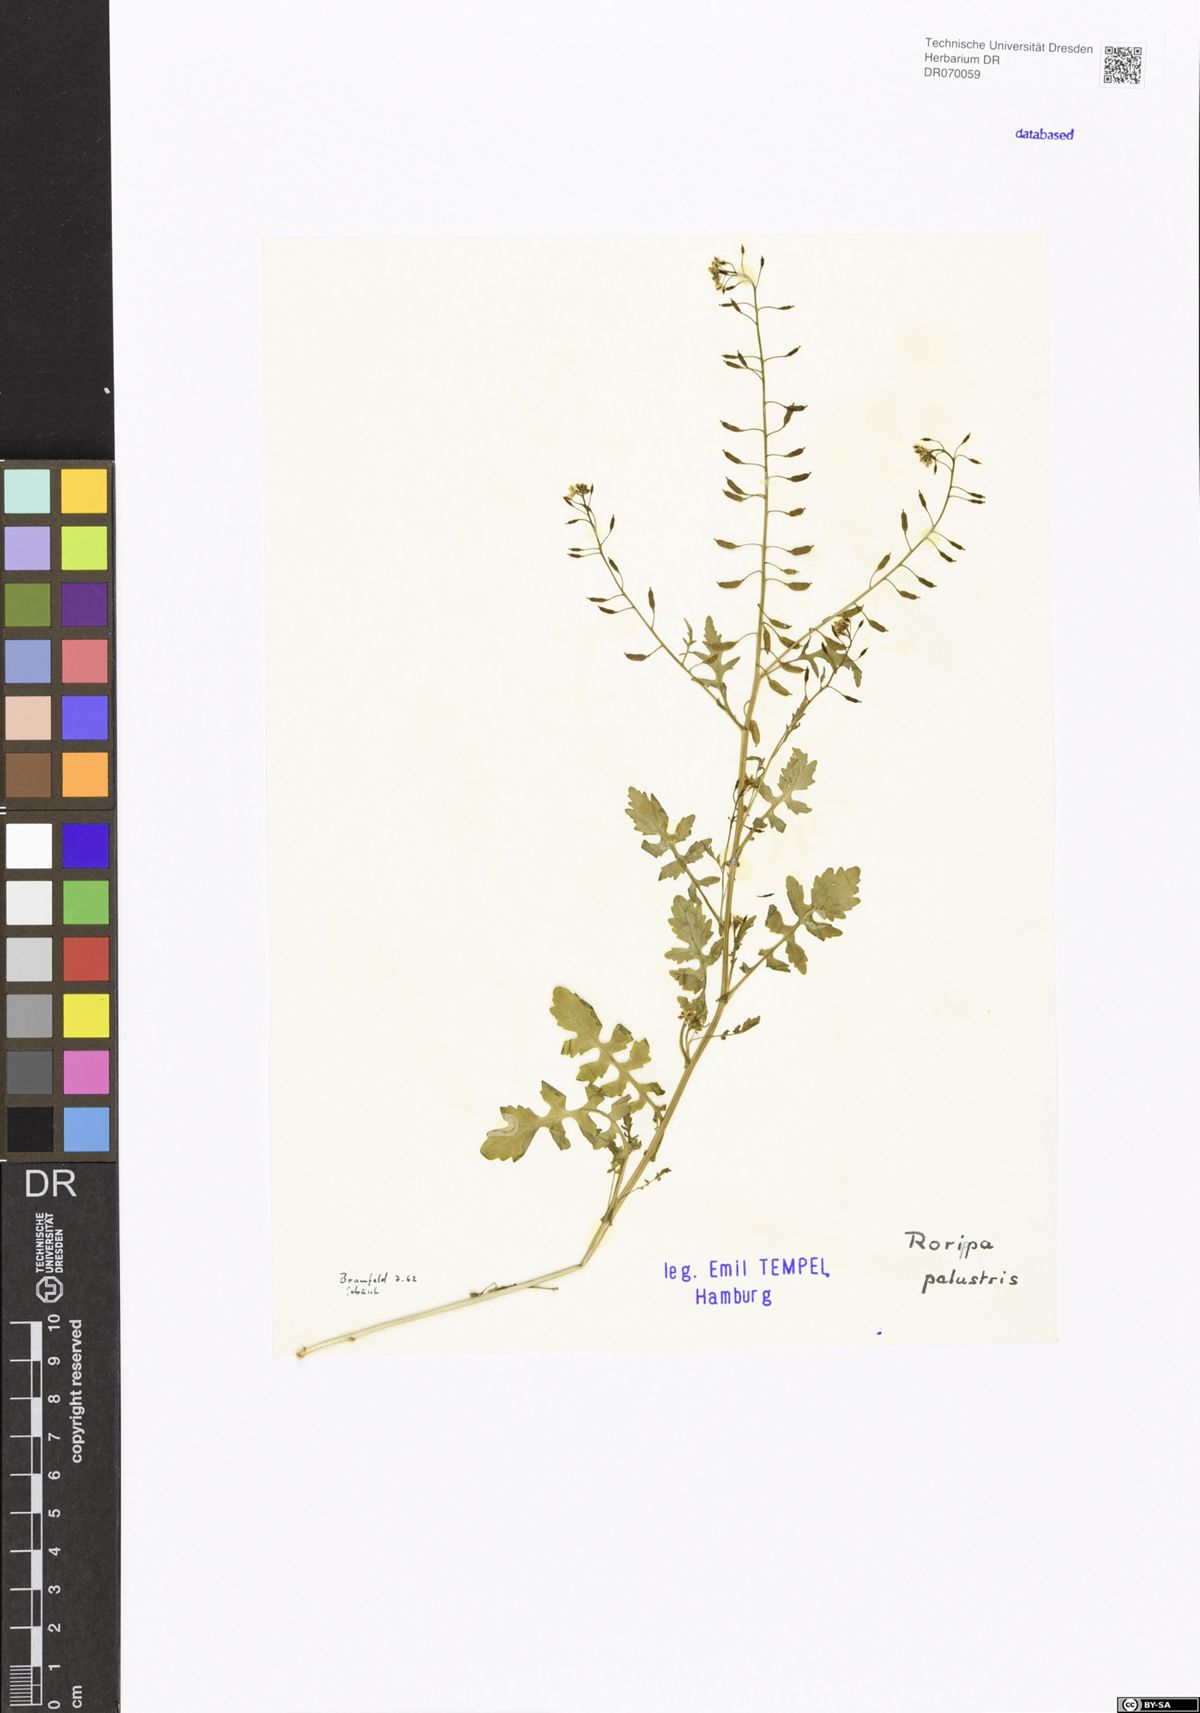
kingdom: Plantae
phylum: Tracheophyta
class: Magnoliopsida
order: Brassicales
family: Brassicaceae
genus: Rorippa
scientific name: Rorippa palustris
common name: Marsh yellow-cress
